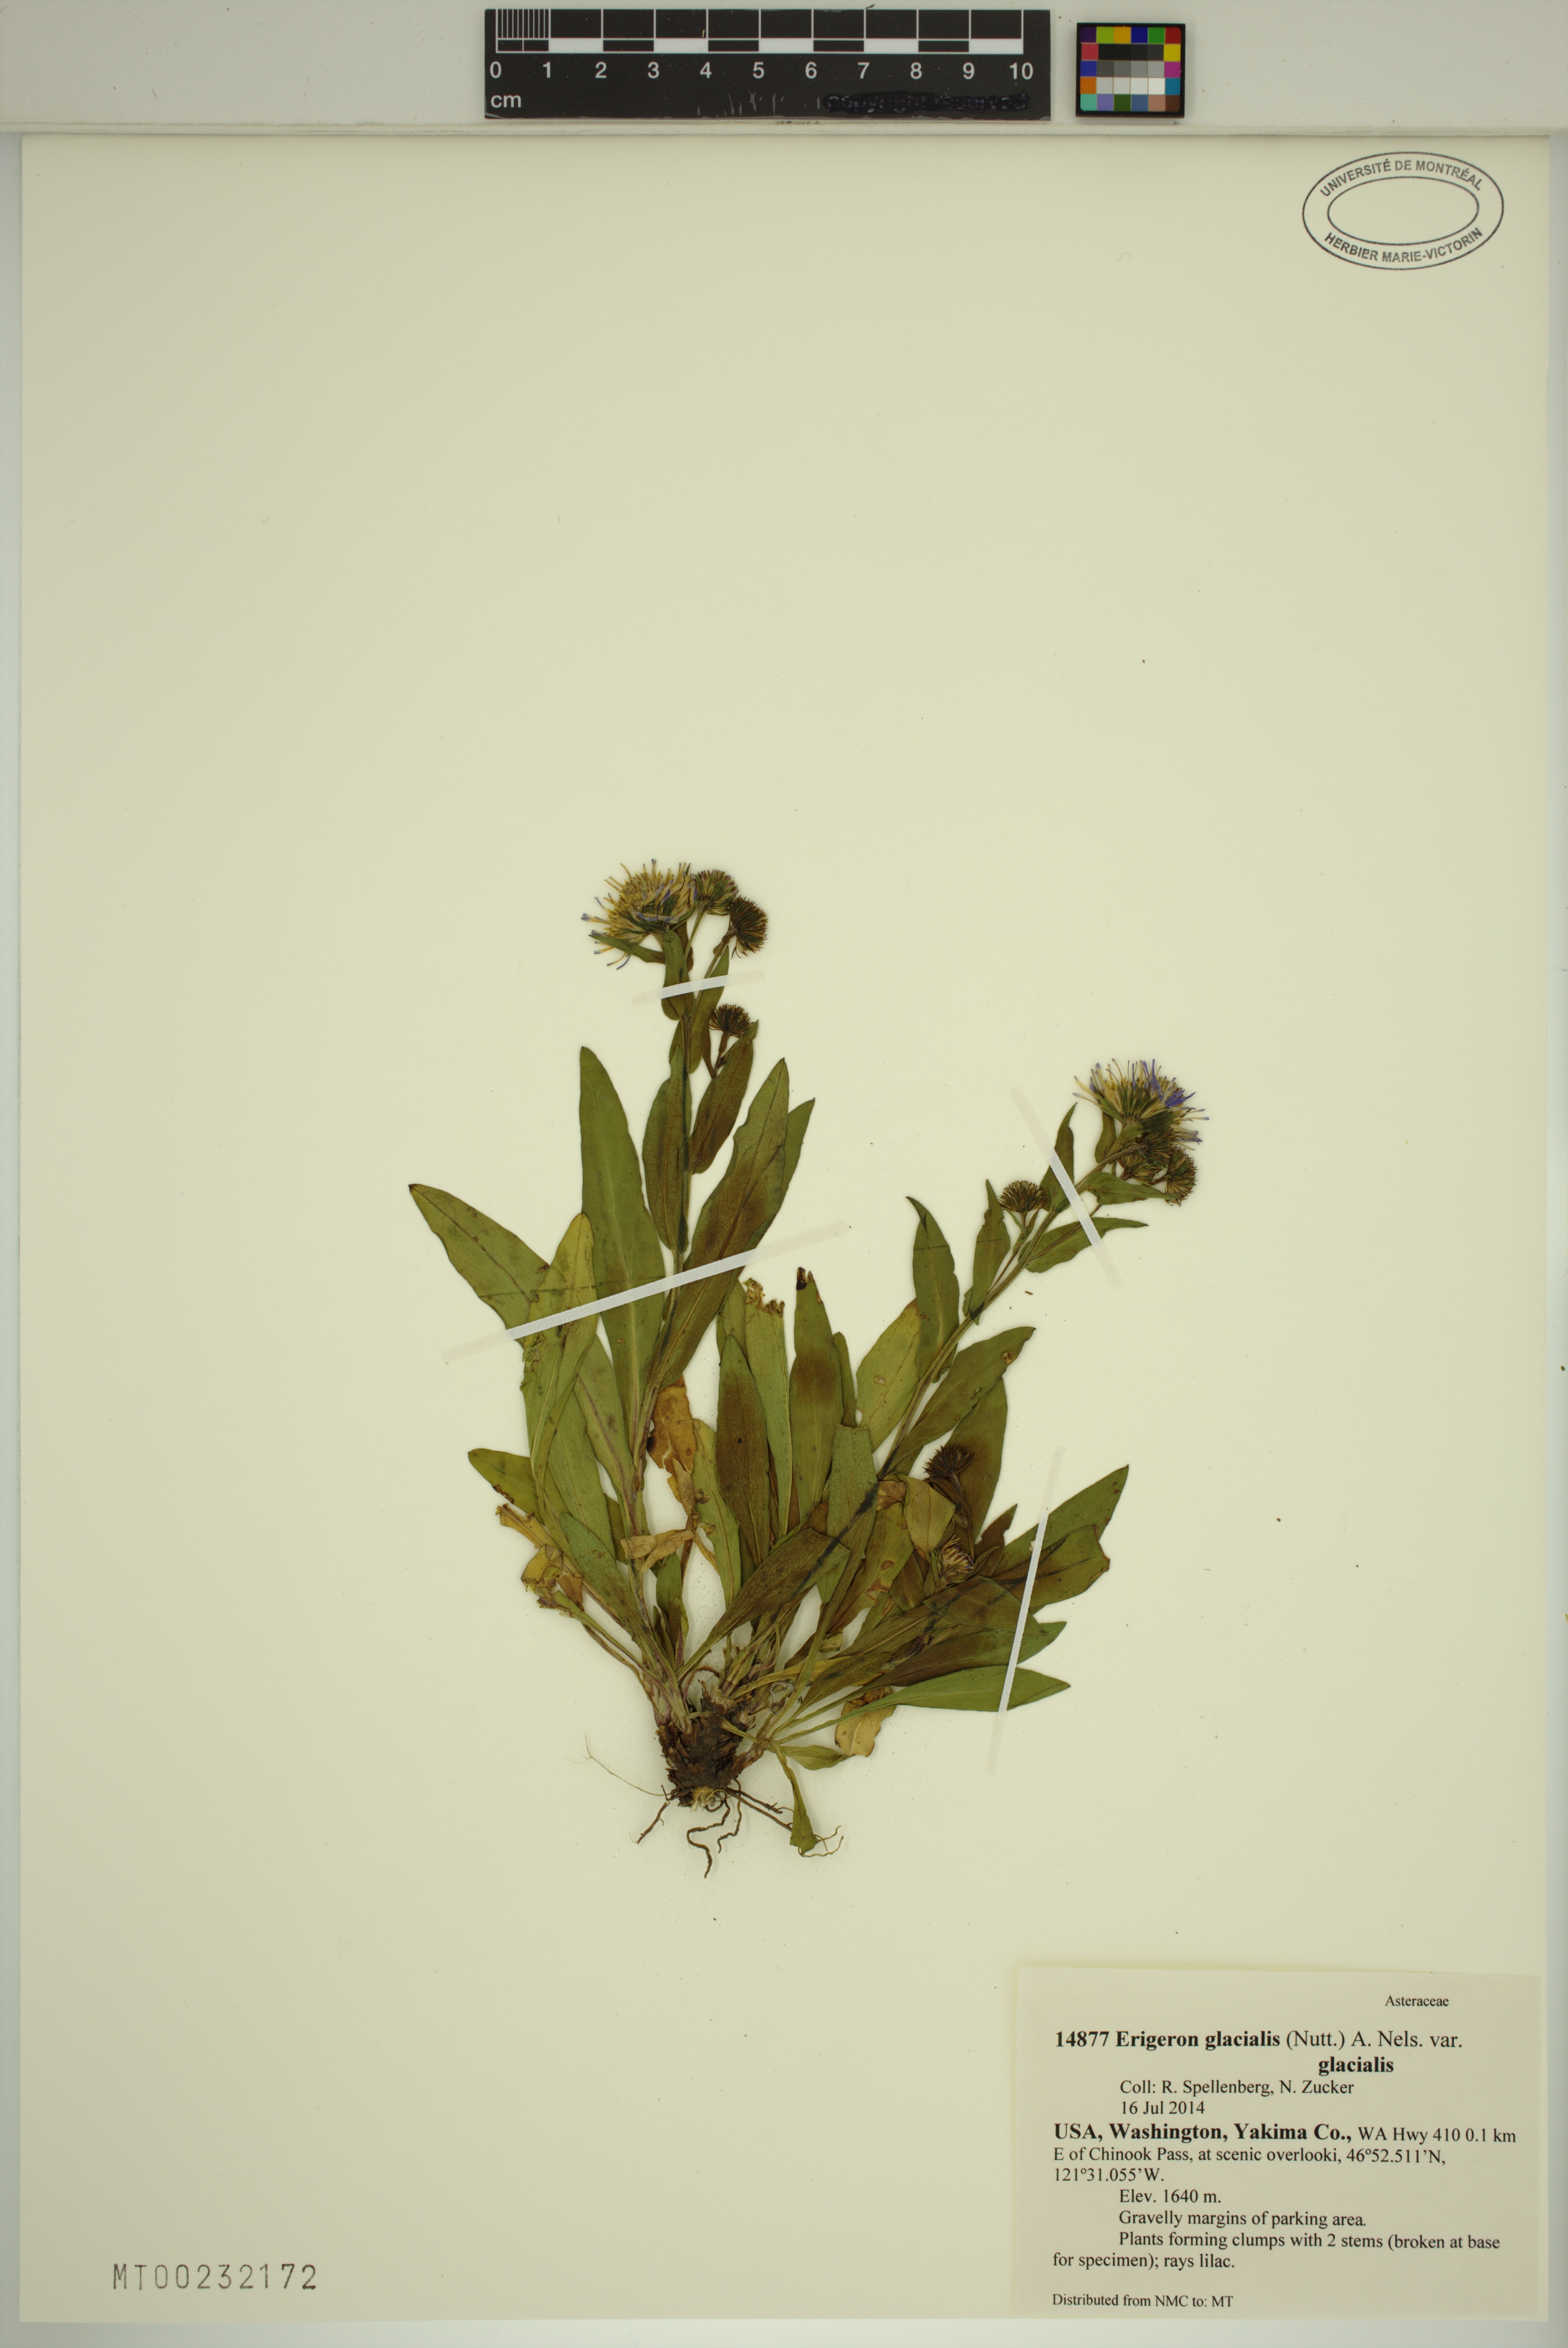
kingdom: Plantae
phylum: Tracheophyta
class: Magnoliopsida
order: Asterales
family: Asteraceae
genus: Erigeron
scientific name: Erigeron glacialis
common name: Subalpine fleabane
